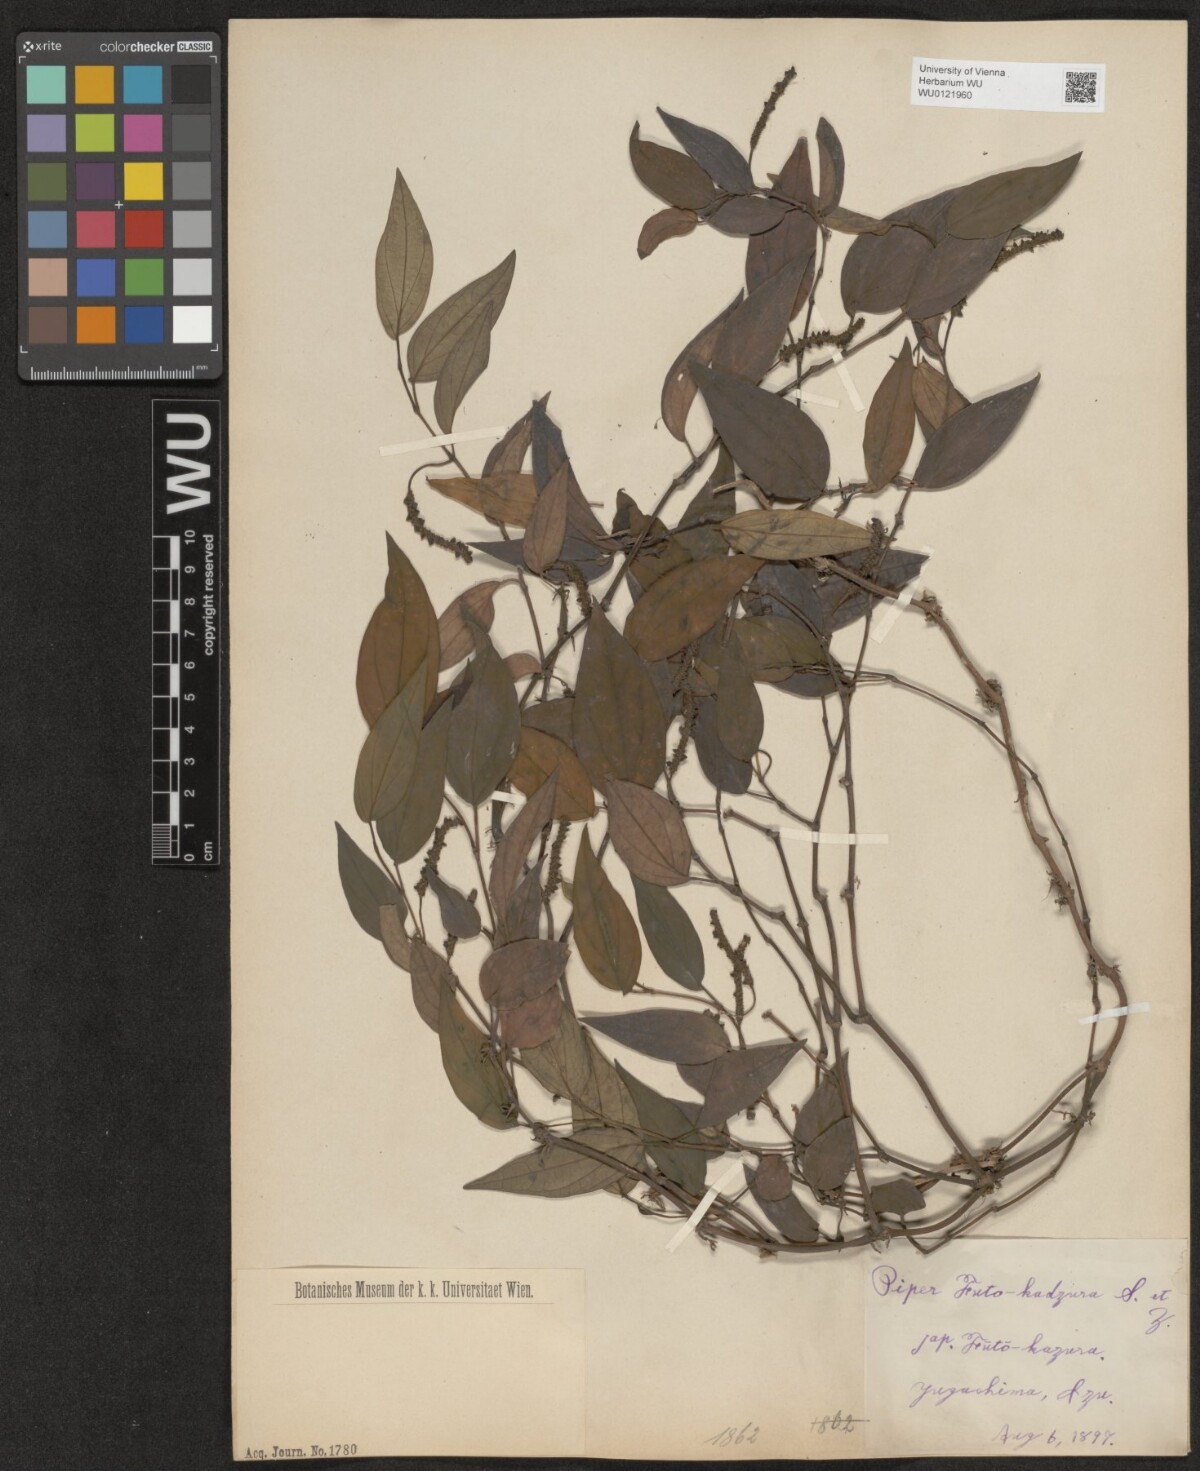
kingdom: Plantae
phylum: Tracheophyta
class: Magnoliopsida
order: Piperales
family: Piperaceae
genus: Piper
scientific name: Piper kadsura
